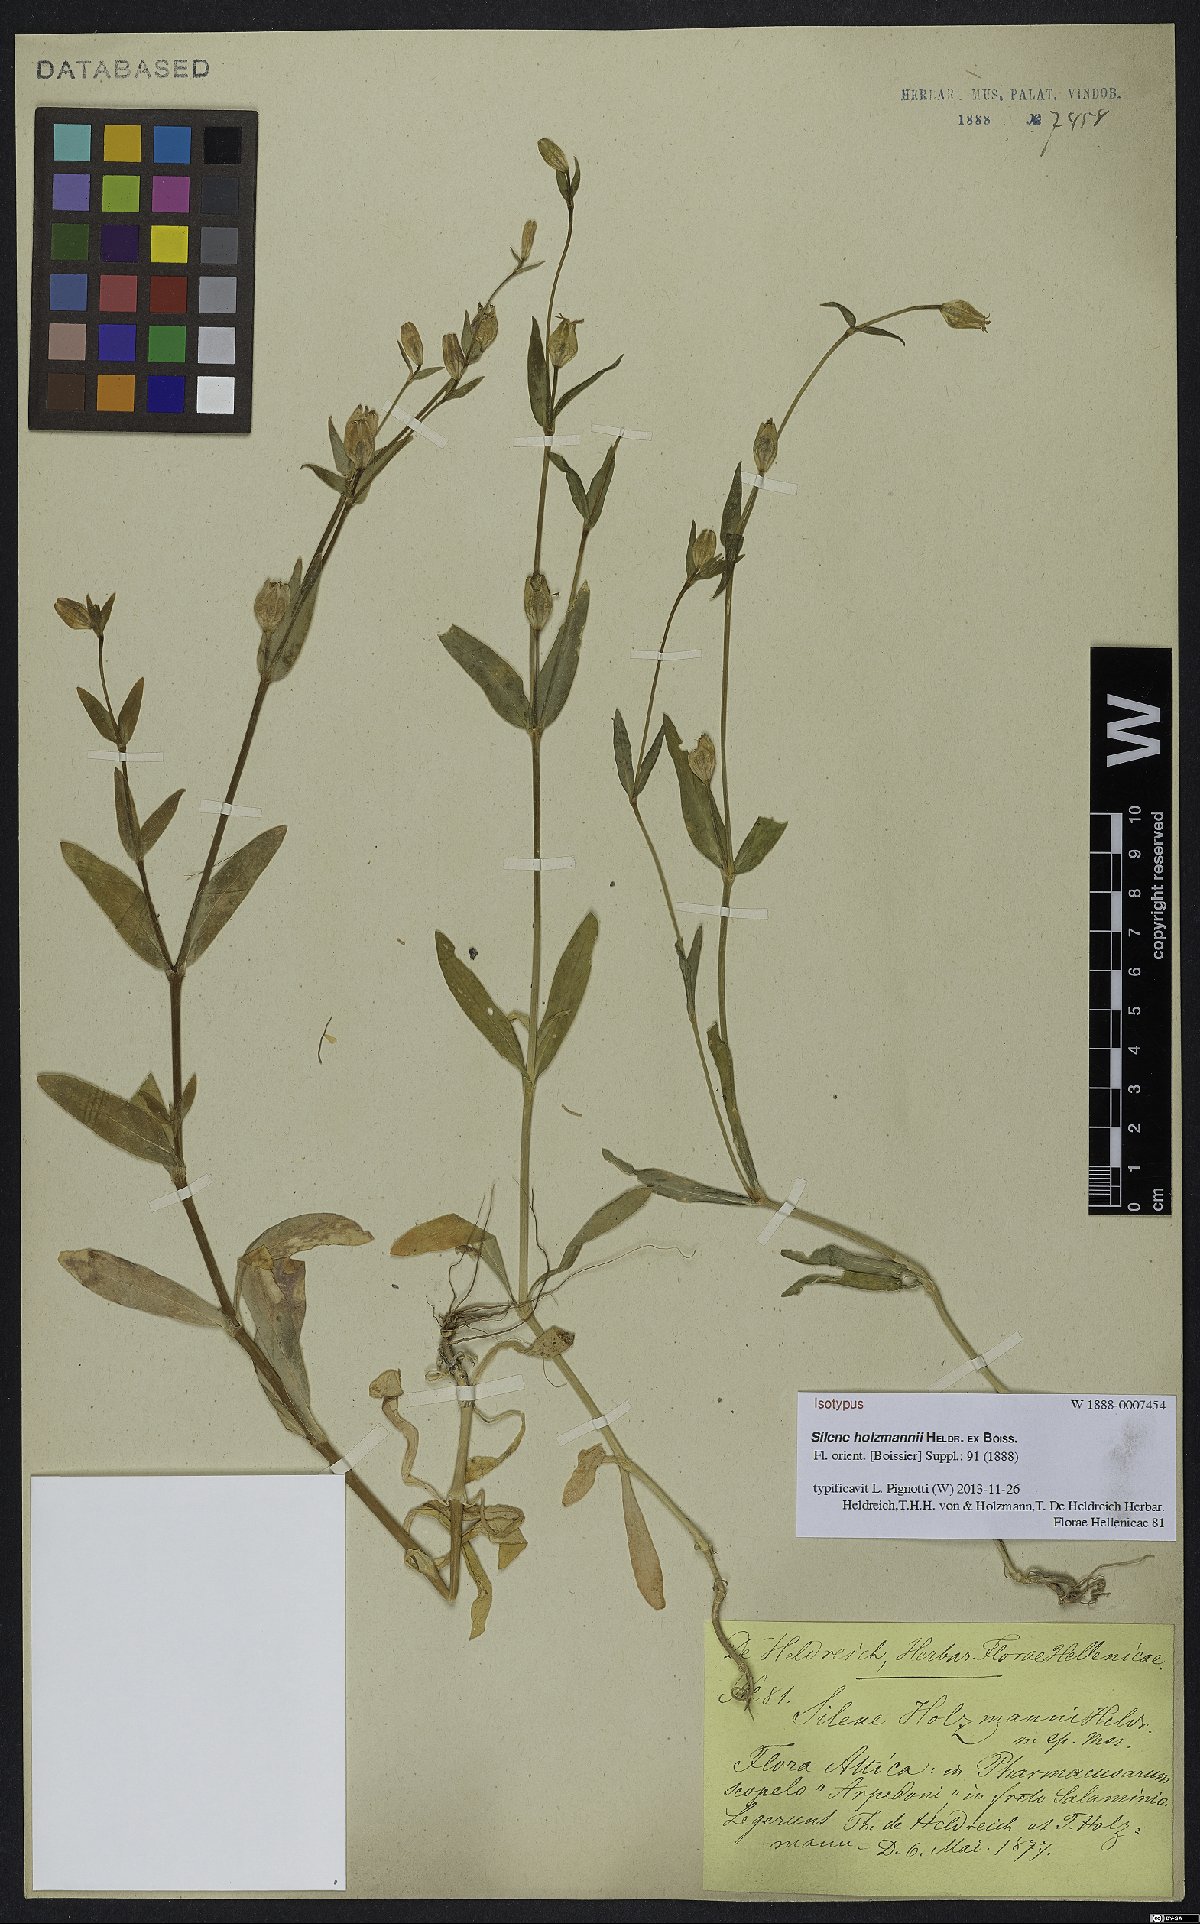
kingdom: Plantae
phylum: Tracheophyta
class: Magnoliopsida
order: Caryophyllales
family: Caryophyllaceae
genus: Silene
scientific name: Silene holzmannii
